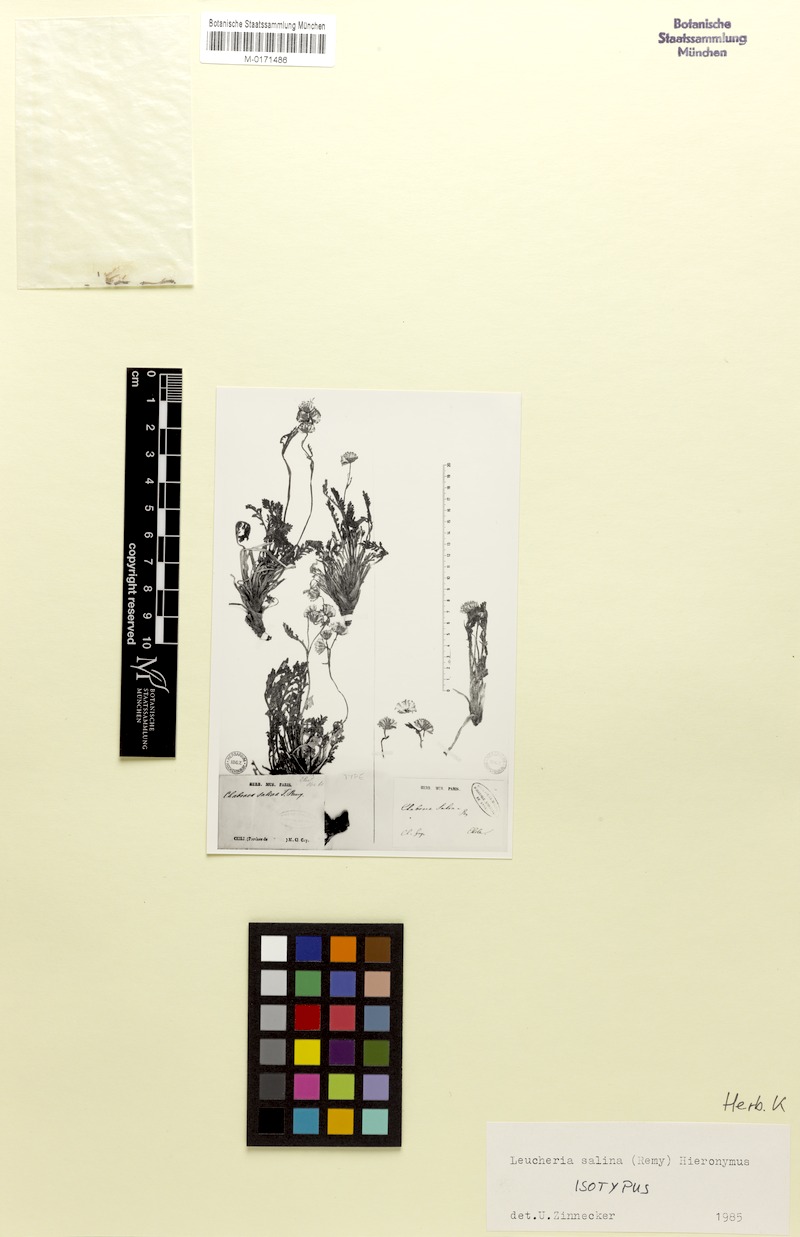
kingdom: Plantae
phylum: Tracheophyta
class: Magnoliopsida
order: Asterales
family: Asteraceae
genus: Leucheria
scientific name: Leucheria salina
